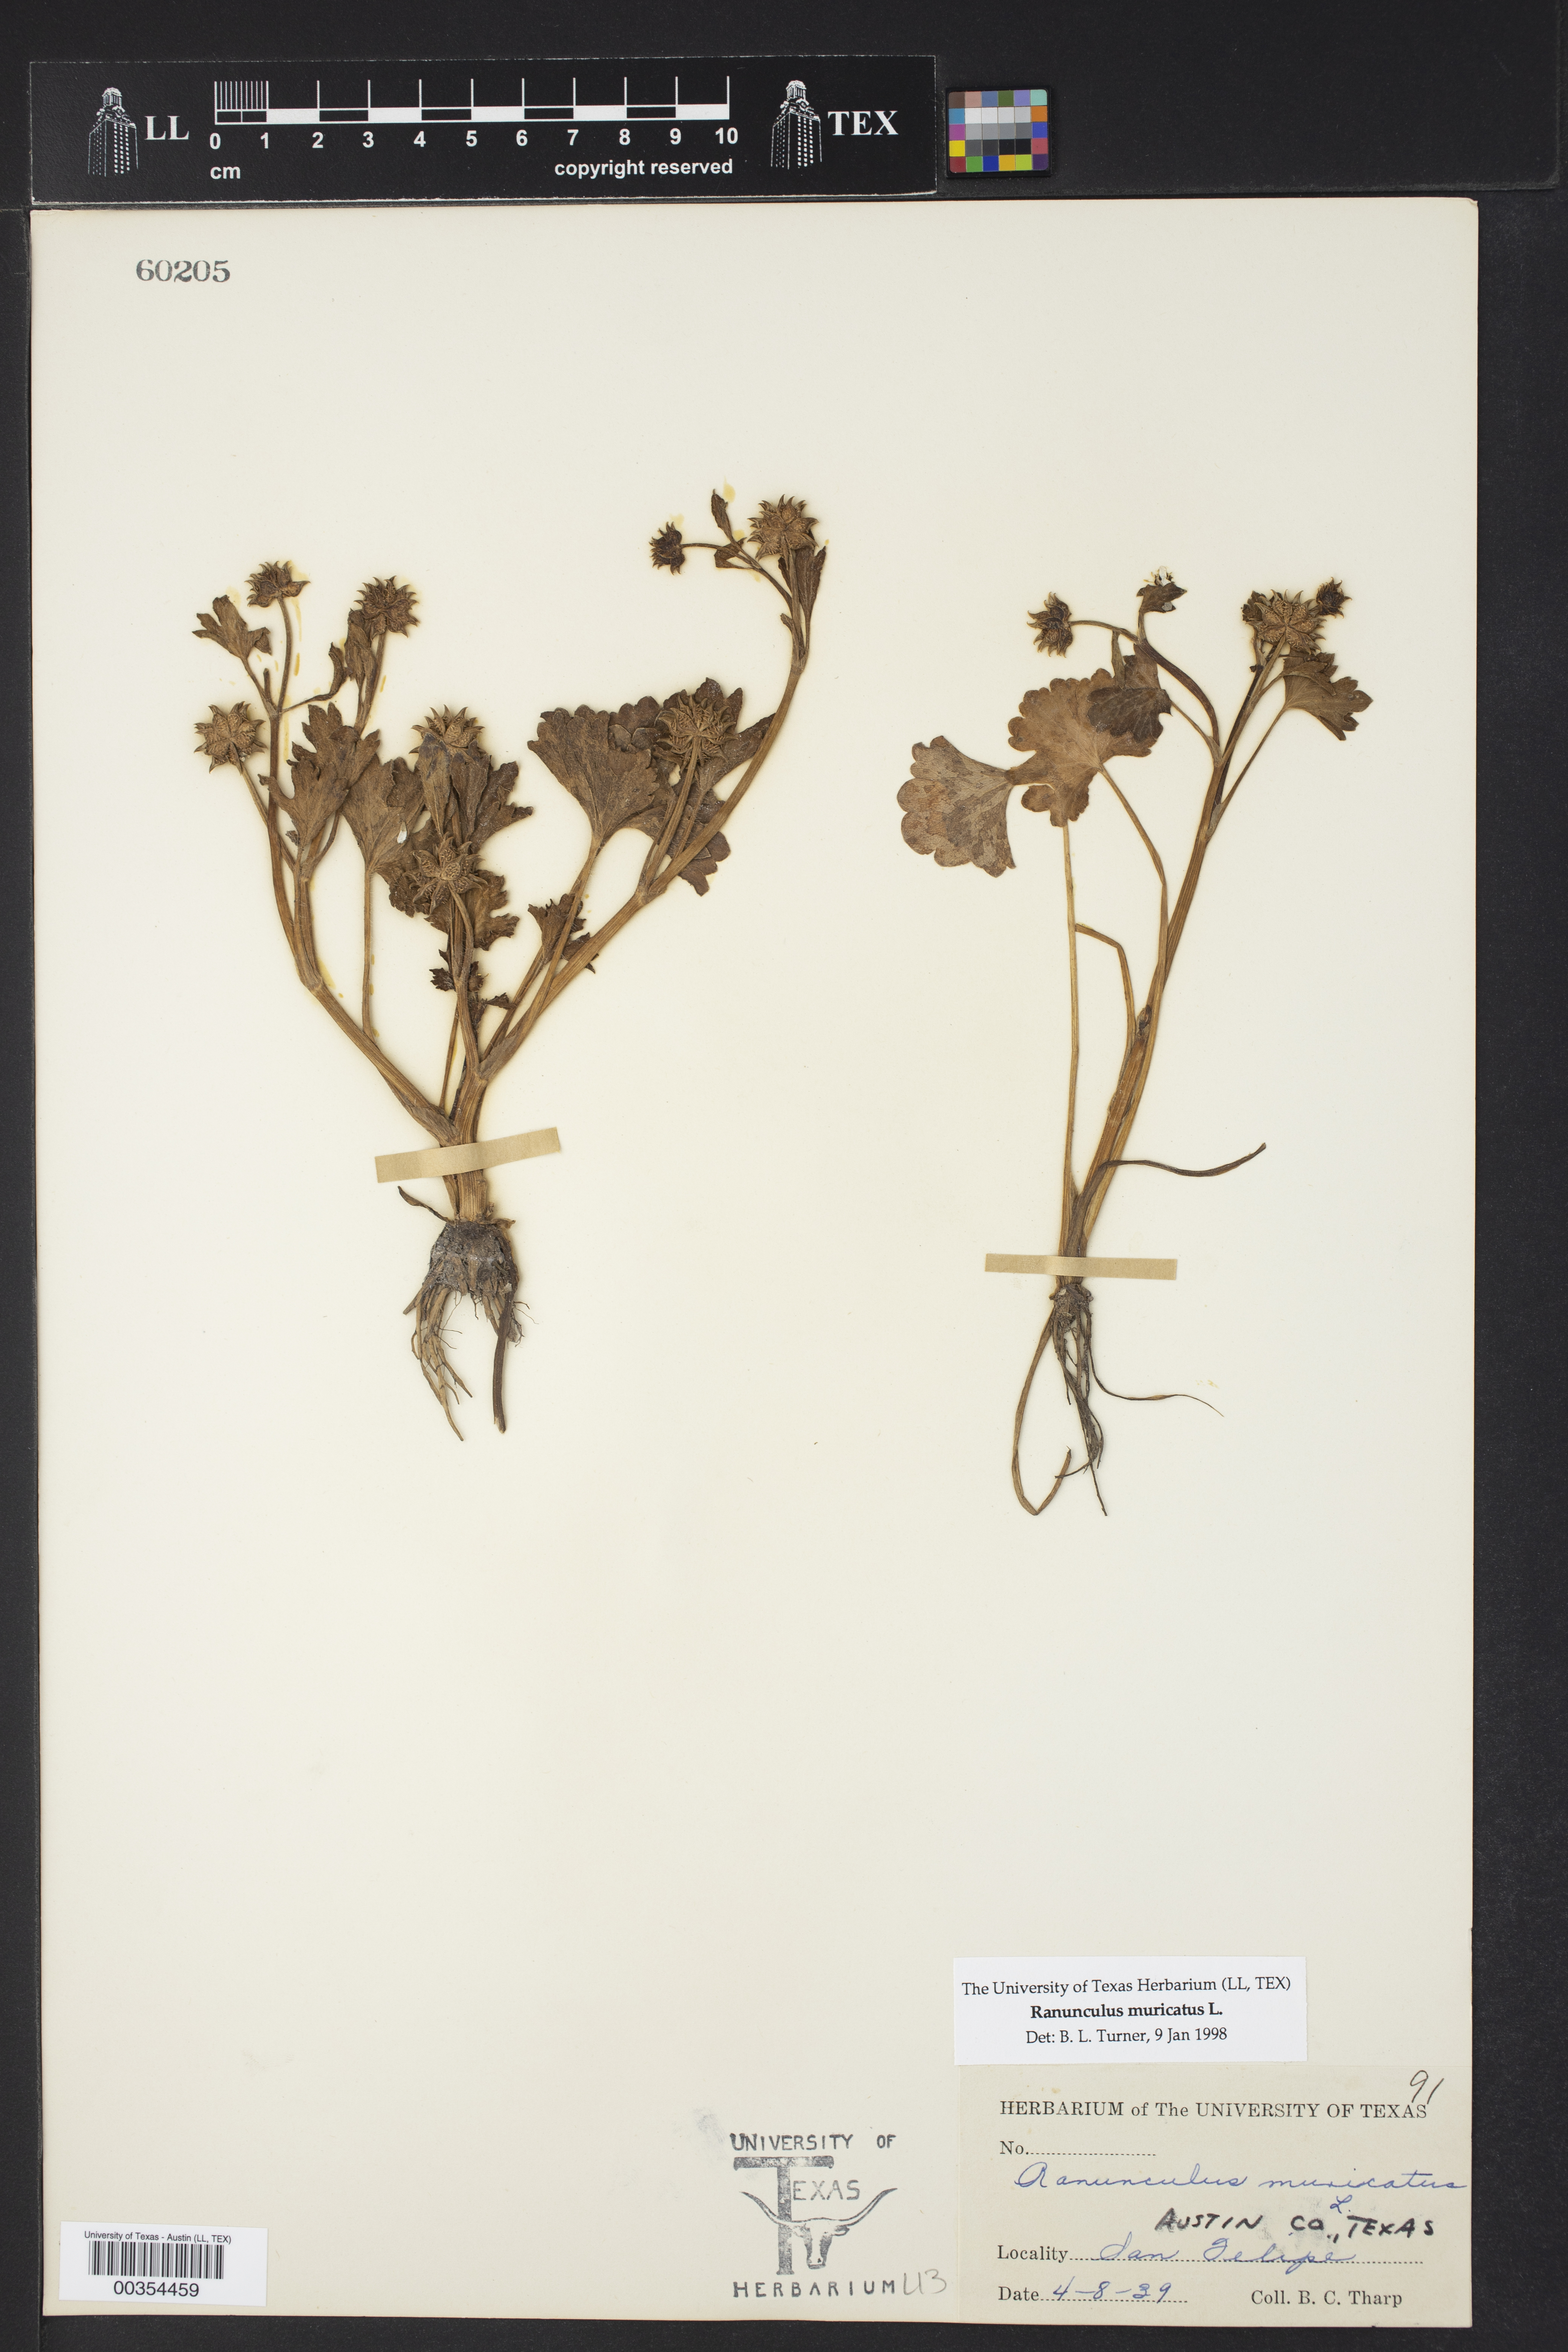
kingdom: Plantae
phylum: Tracheophyta
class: Magnoliopsida
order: Ranunculales
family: Ranunculaceae
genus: Ranunculus
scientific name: Ranunculus muricatus
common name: Rough-fruited buttercup
